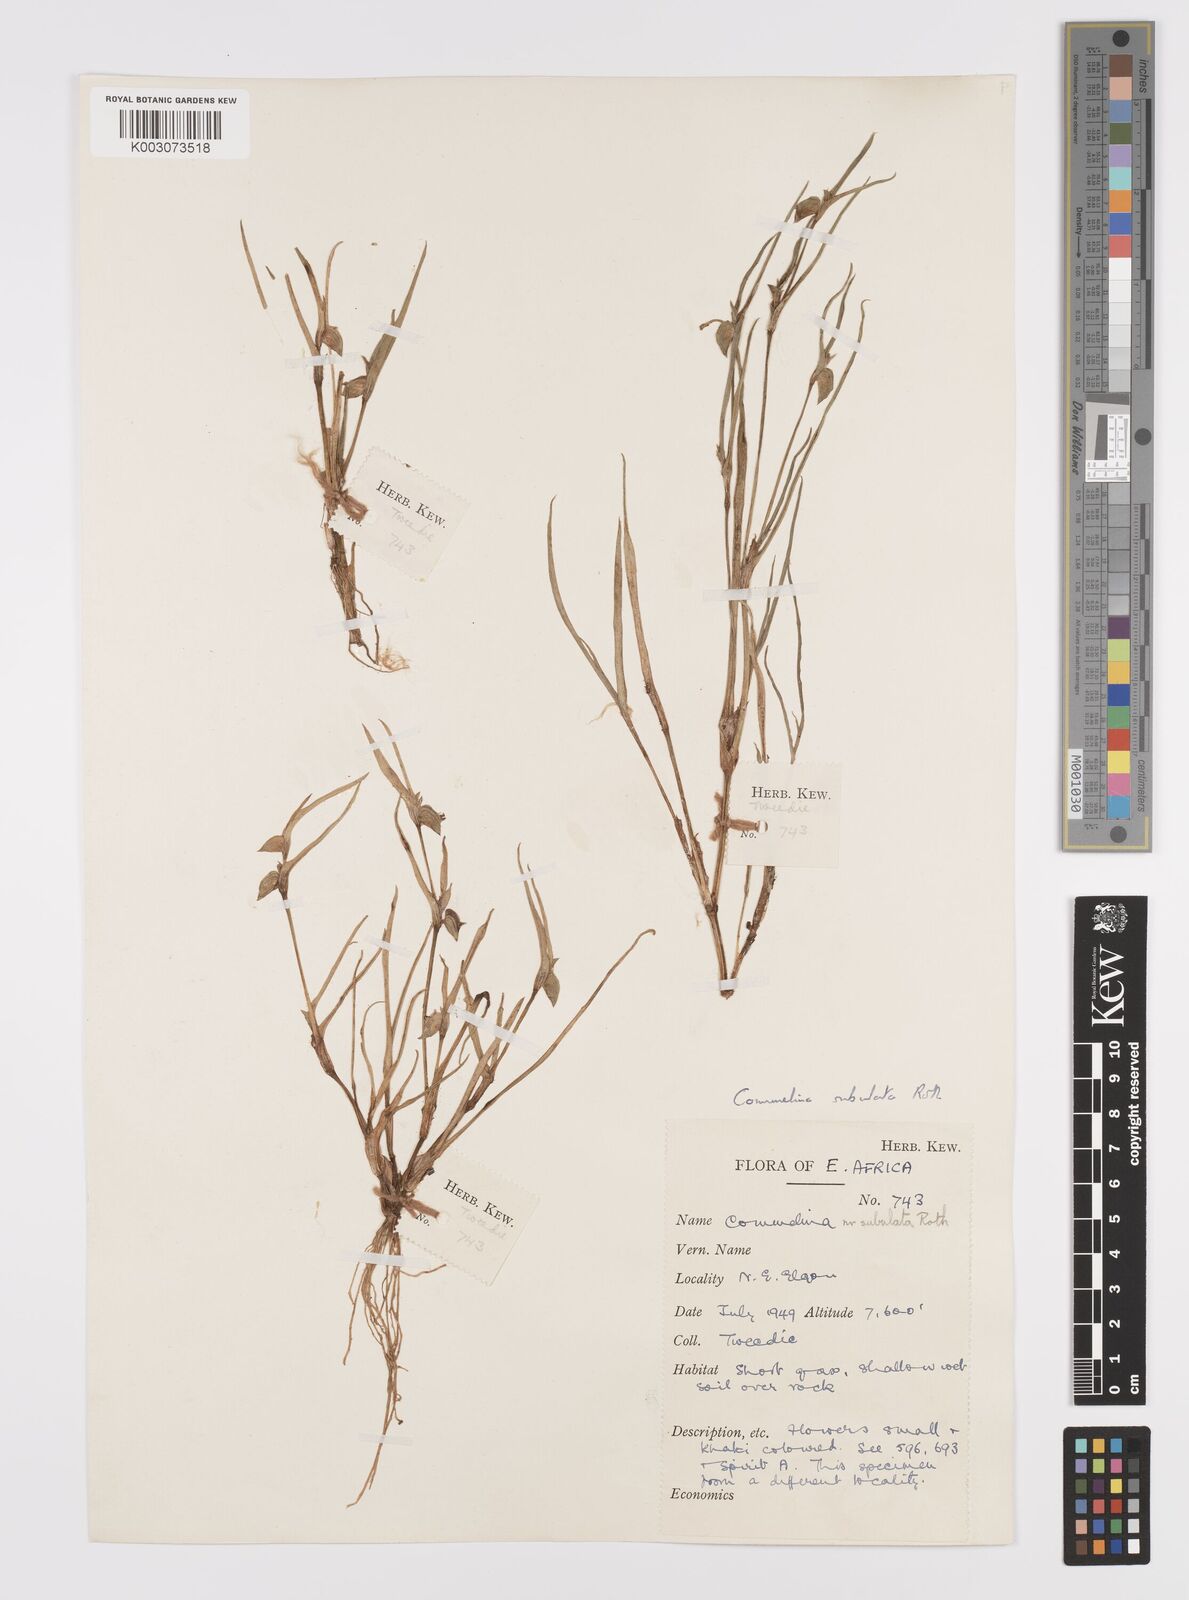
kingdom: Plantae
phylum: Tracheophyta
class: Liliopsida
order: Commelinales
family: Commelinaceae
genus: Commelina
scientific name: Commelina subulata
